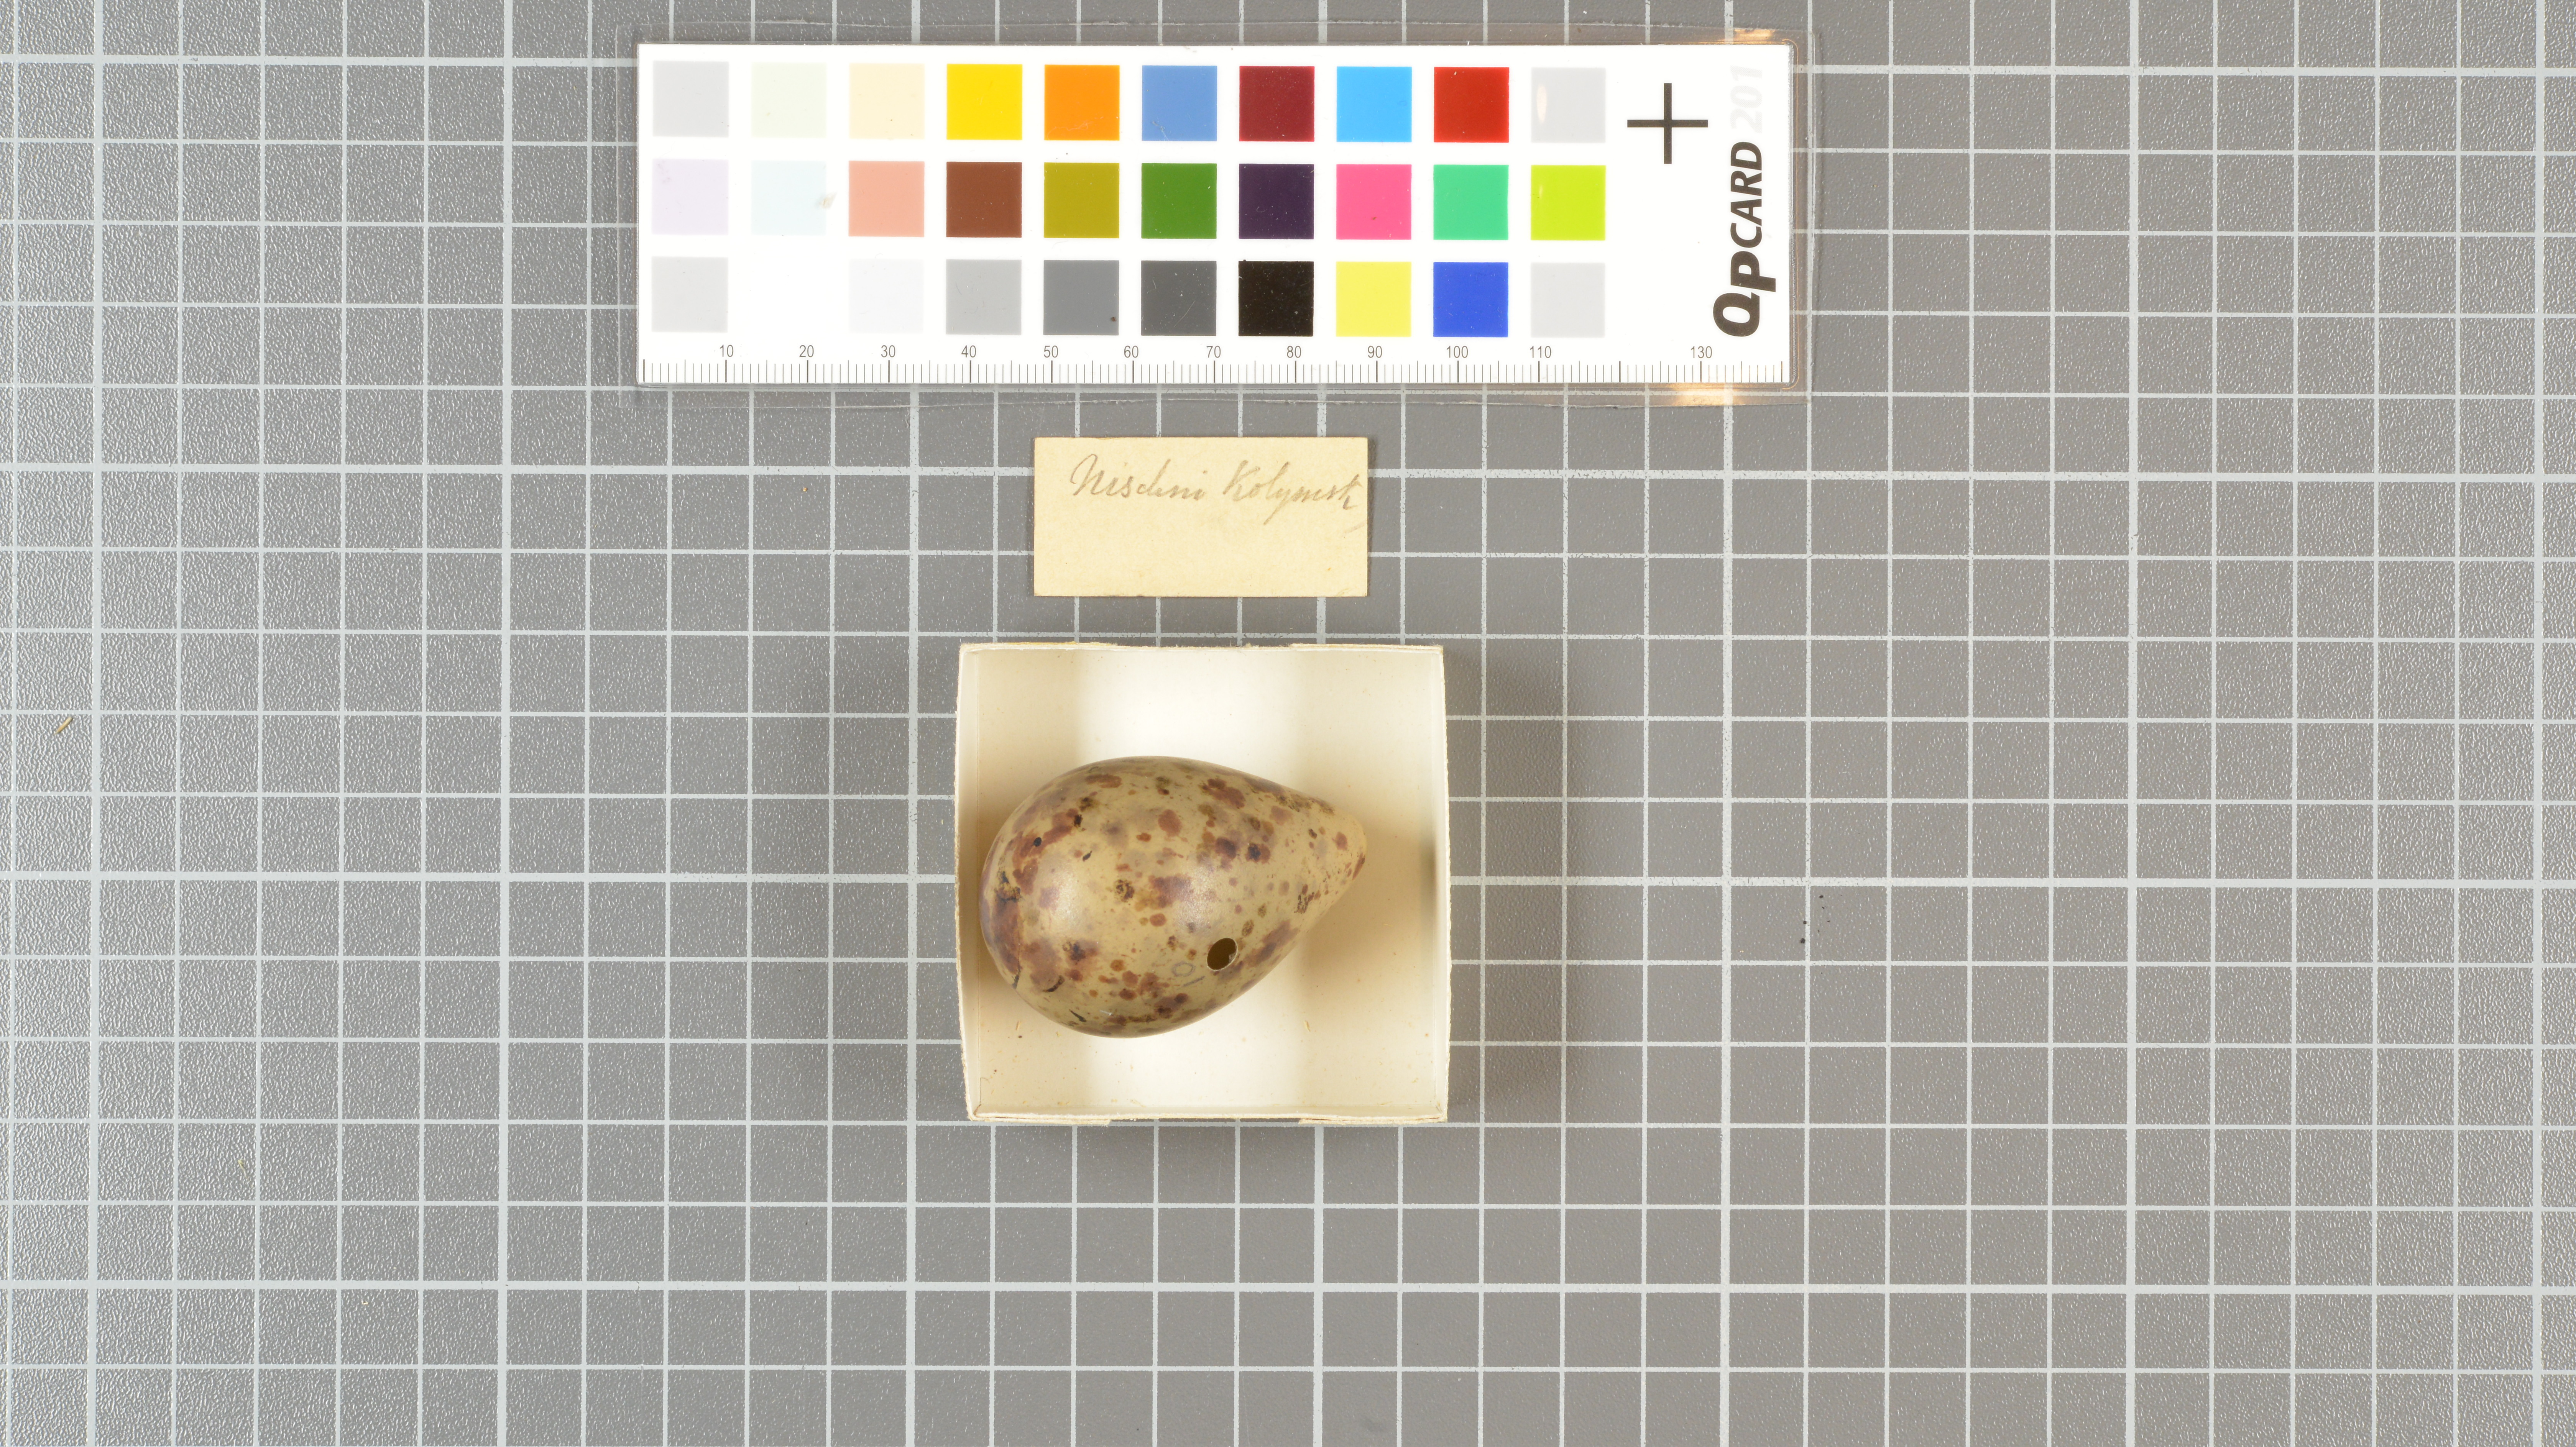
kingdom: Animalia
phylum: Chordata
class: Aves
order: Charadriiformes
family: Scolopacidae
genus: Tringa
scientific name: Tringa erythropus
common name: Spotted redshank
